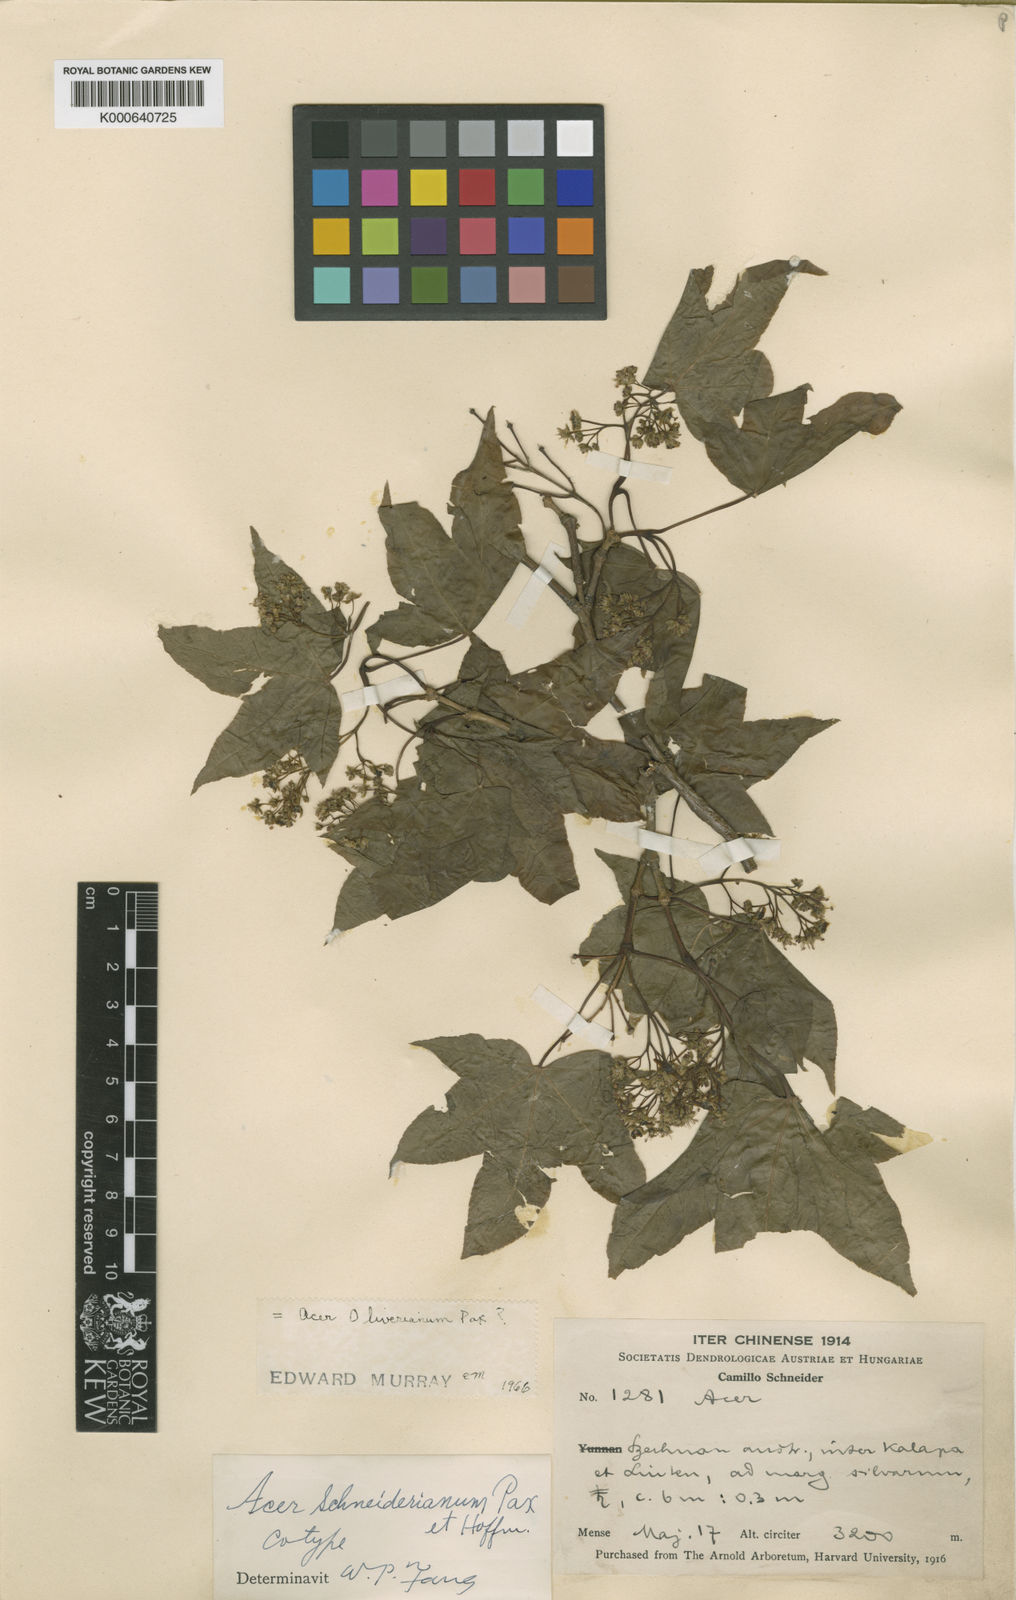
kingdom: Plantae
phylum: Tracheophyta
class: Magnoliopsida
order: Sapindales
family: Sapindaceae
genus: Acer
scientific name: Acer oliverianum
